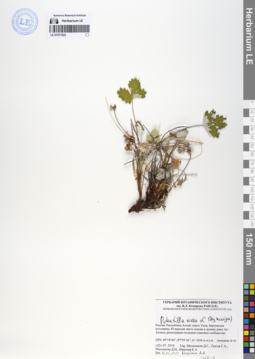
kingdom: Plantae
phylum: Tracheophyta
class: Magnoliopsida
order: Rosales
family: Rosaceae
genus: Potentilla
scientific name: Potentilla nivea
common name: Snow cinquefoil
